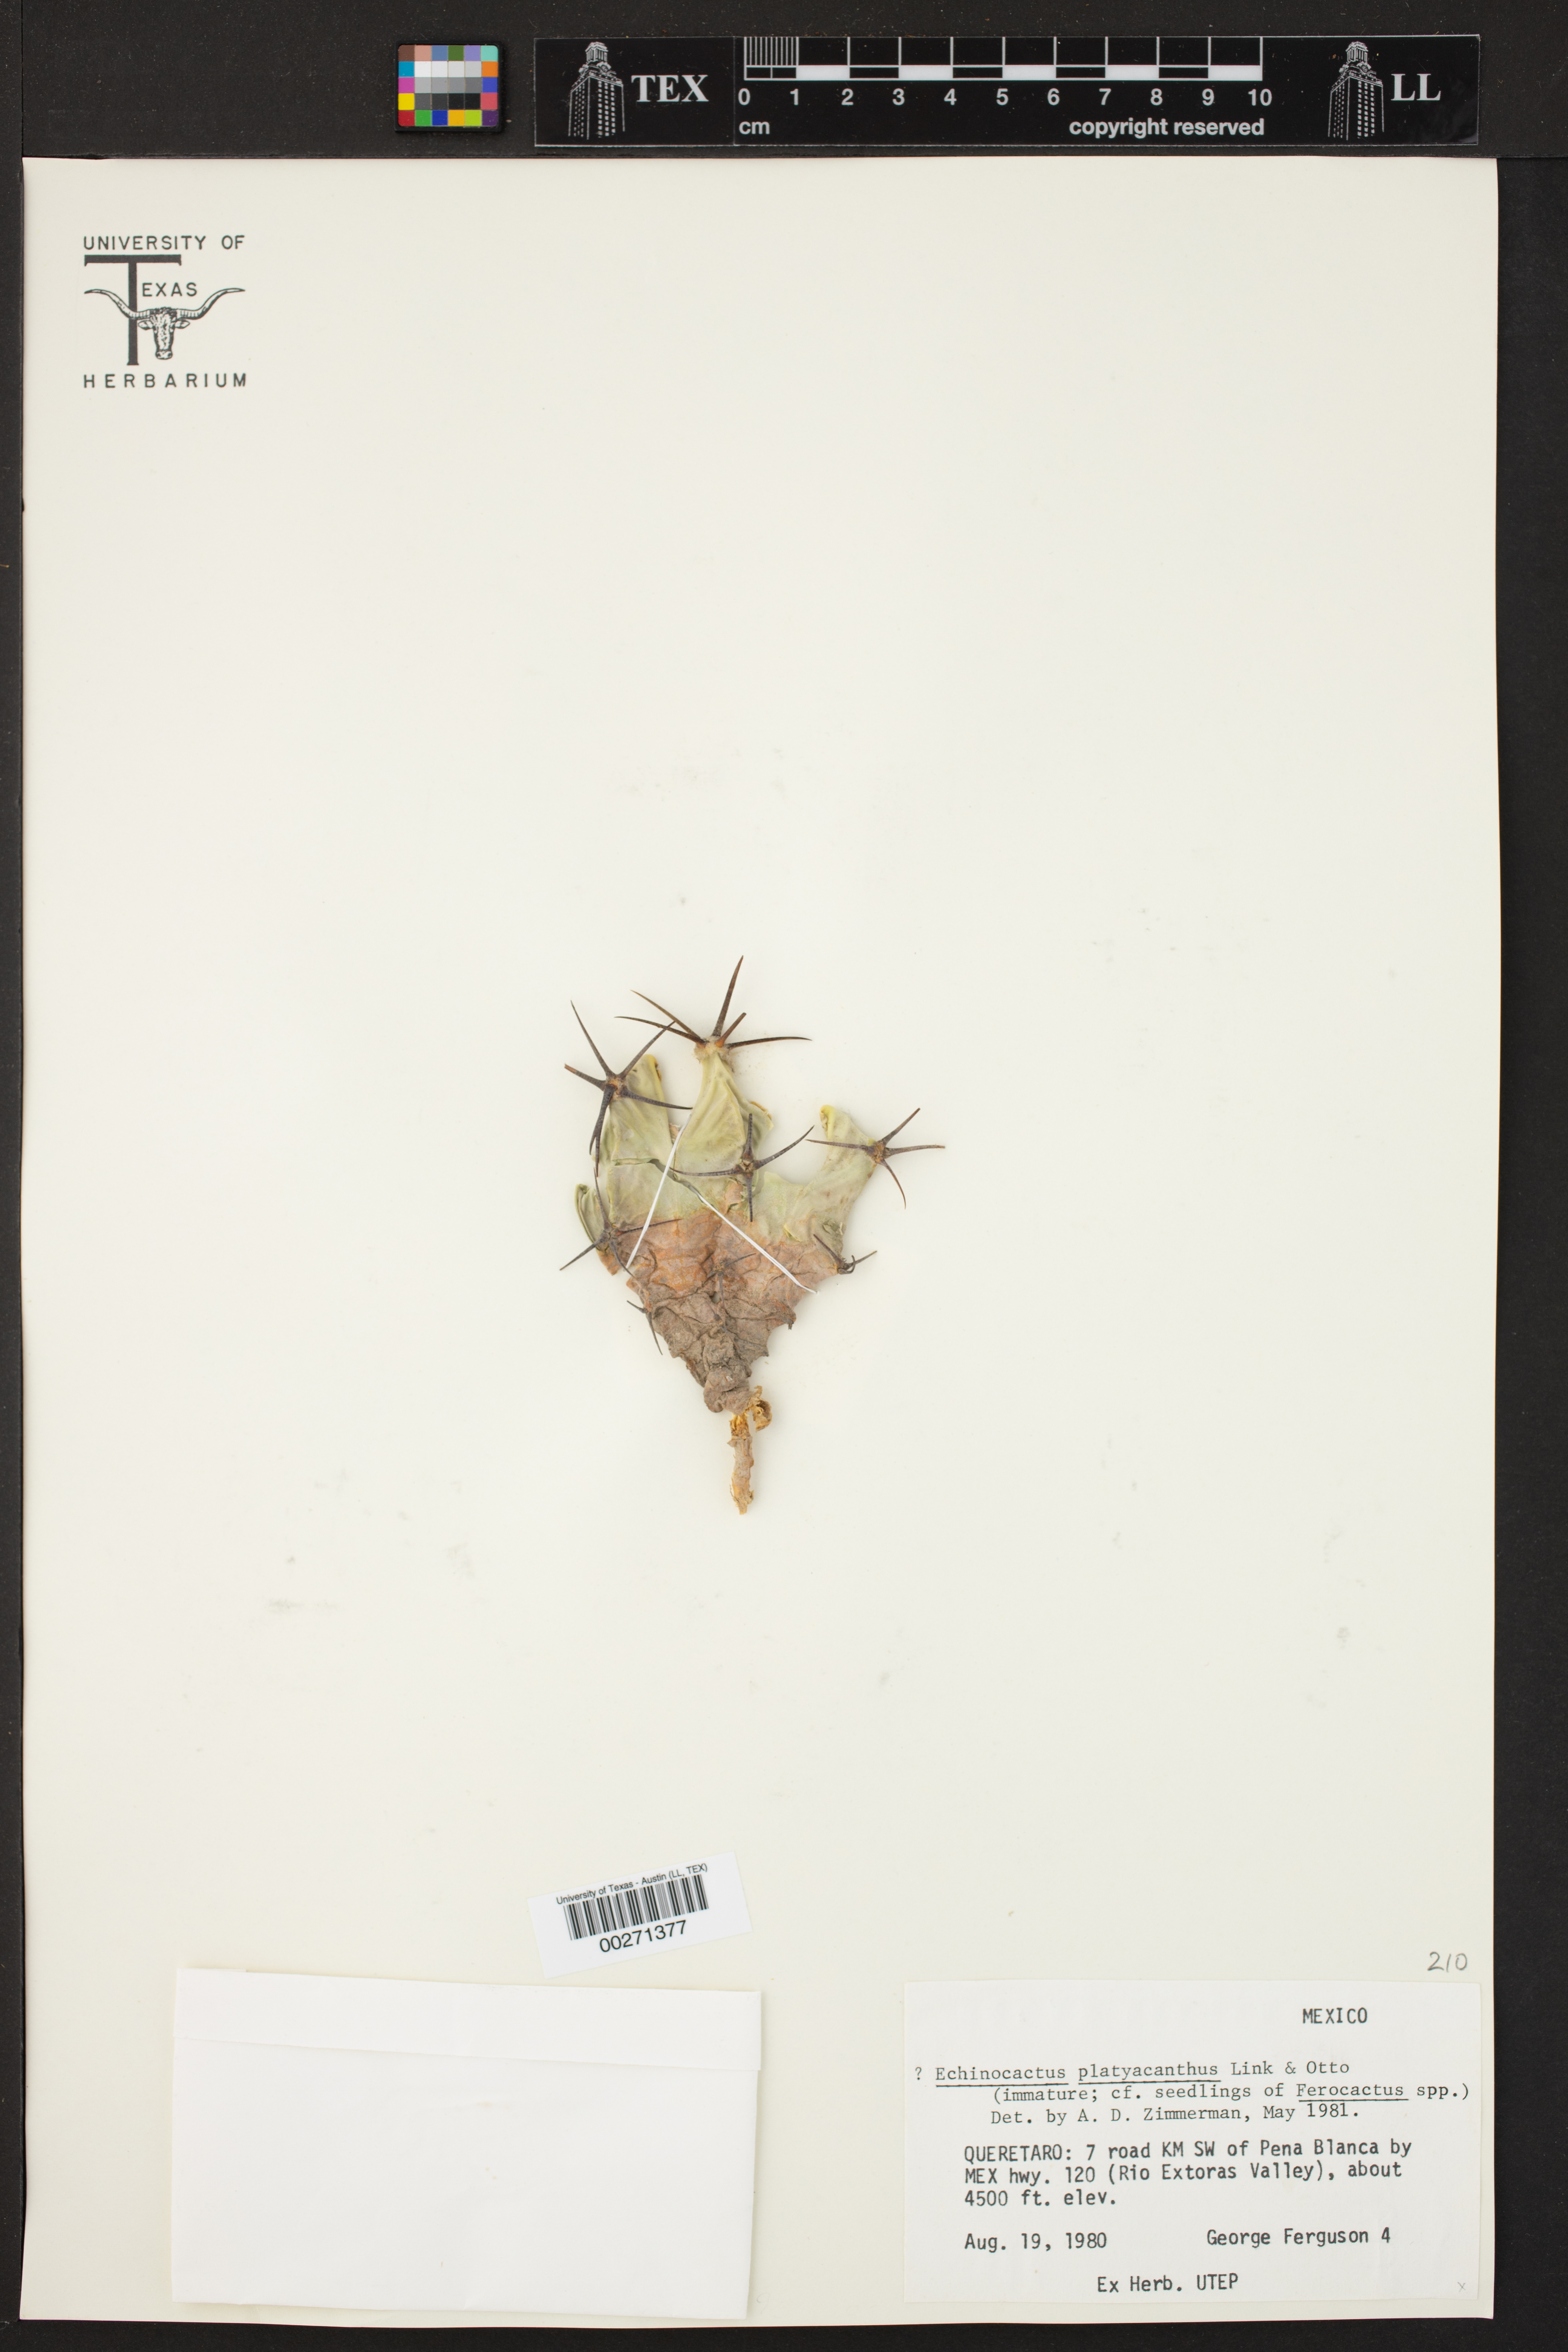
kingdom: Plantae
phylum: Tracheophyta
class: Magnoliopsida
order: Myrtales
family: Melastomataceae
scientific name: Melastomataceae
